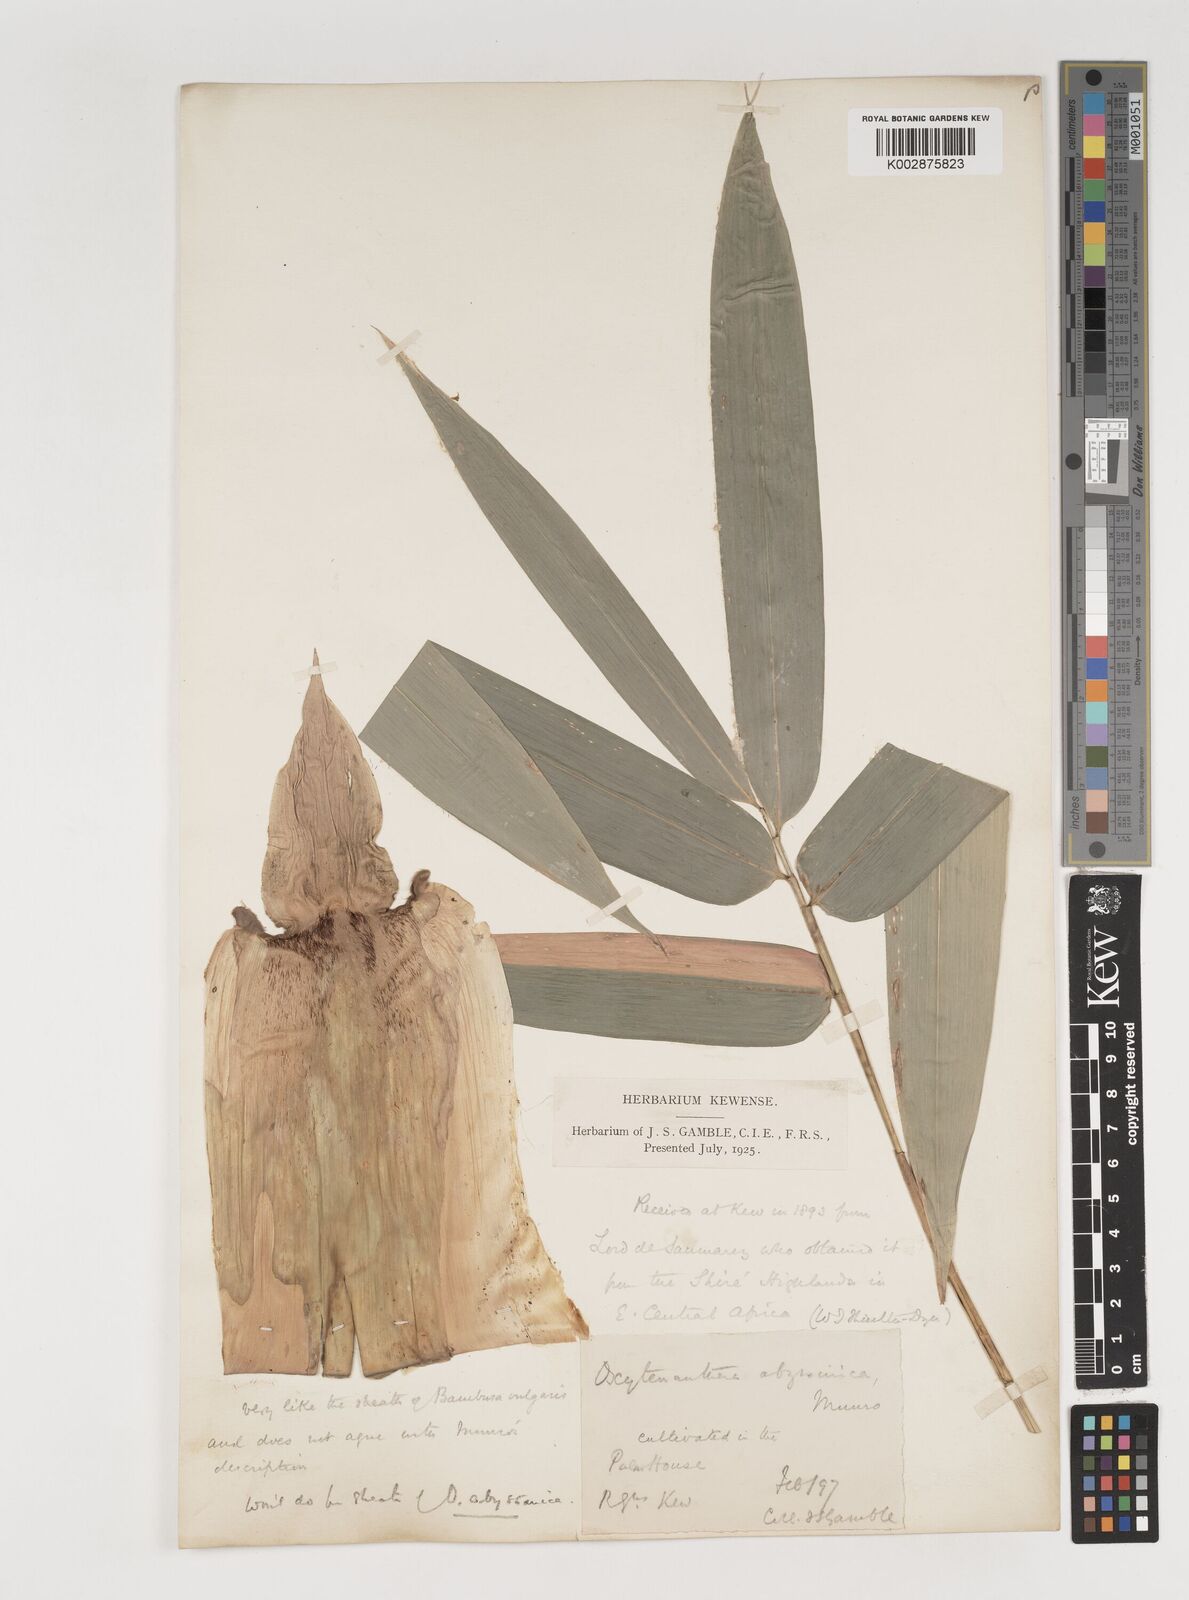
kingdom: Plantae
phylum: Tracheophyta
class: Liliopsida
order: Poales
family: Poaceae
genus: Bambusa
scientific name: Bambusa balcooa
